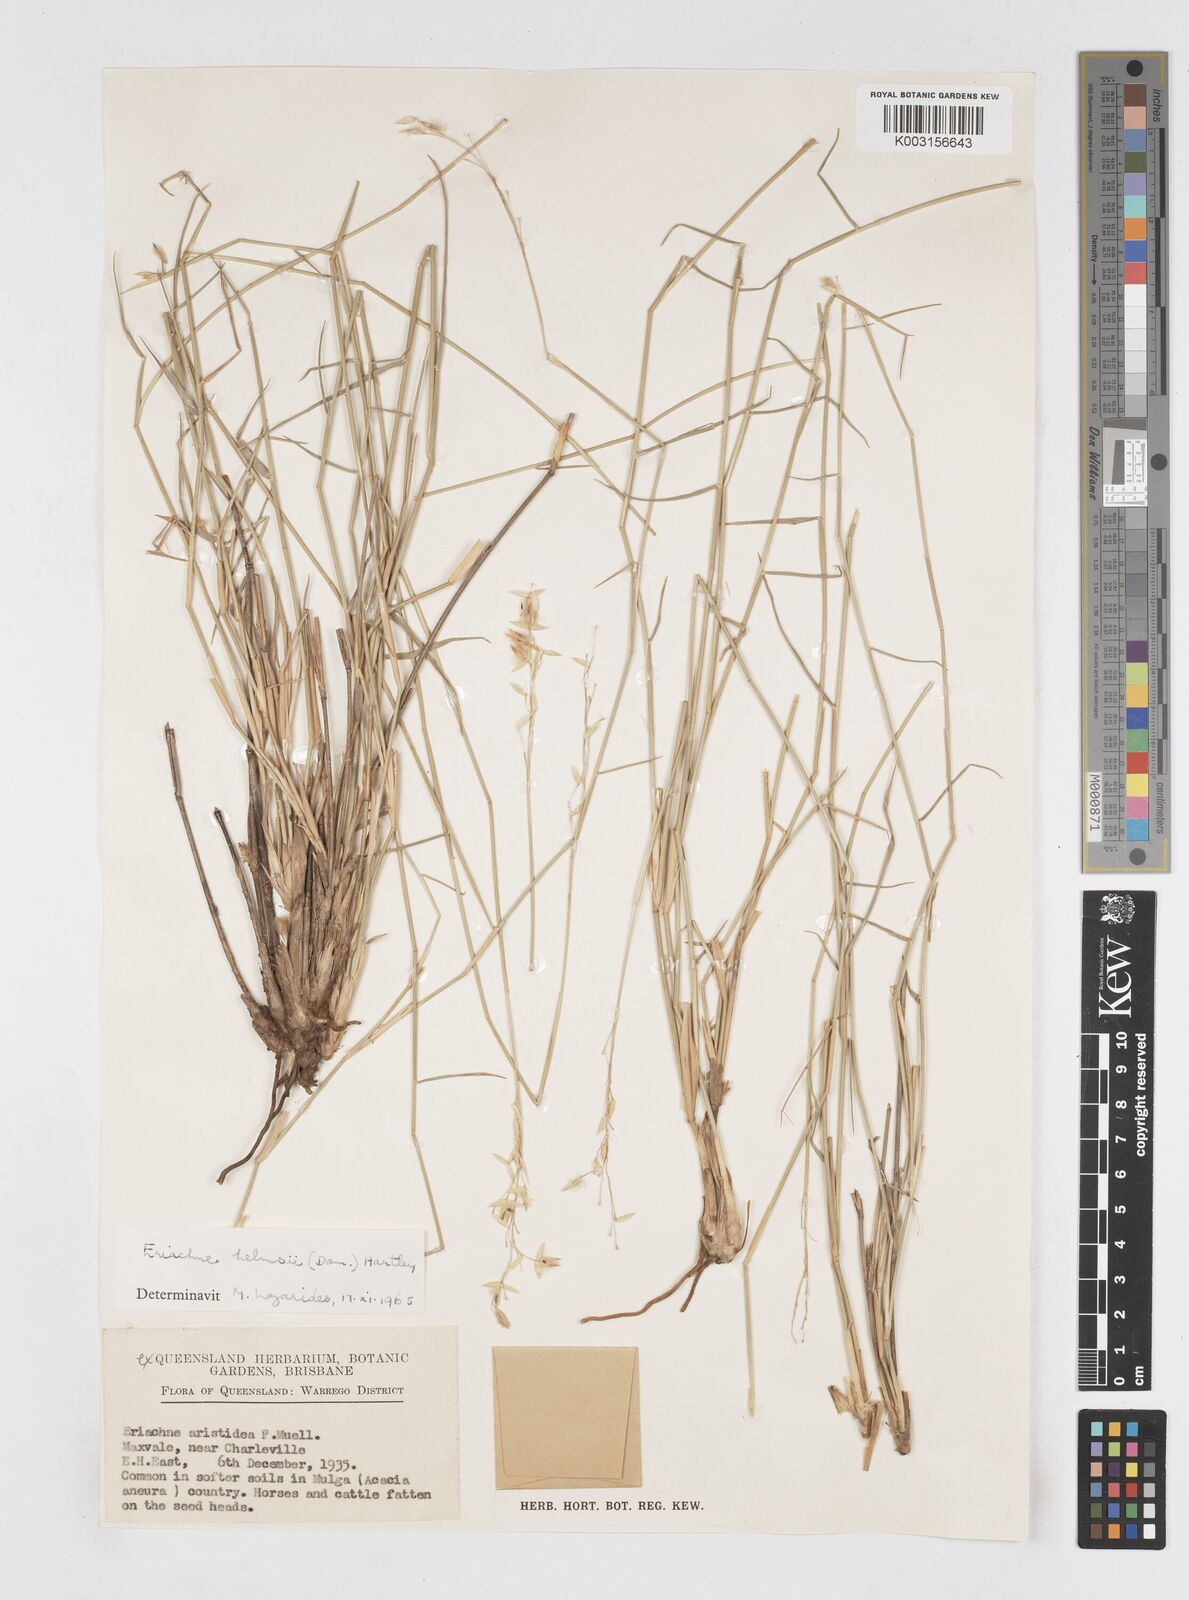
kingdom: Plantae
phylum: Tracheophyta
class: Liliopsida
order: Poales
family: Poaceae
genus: Eriachne
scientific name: Eriachne helmsii
